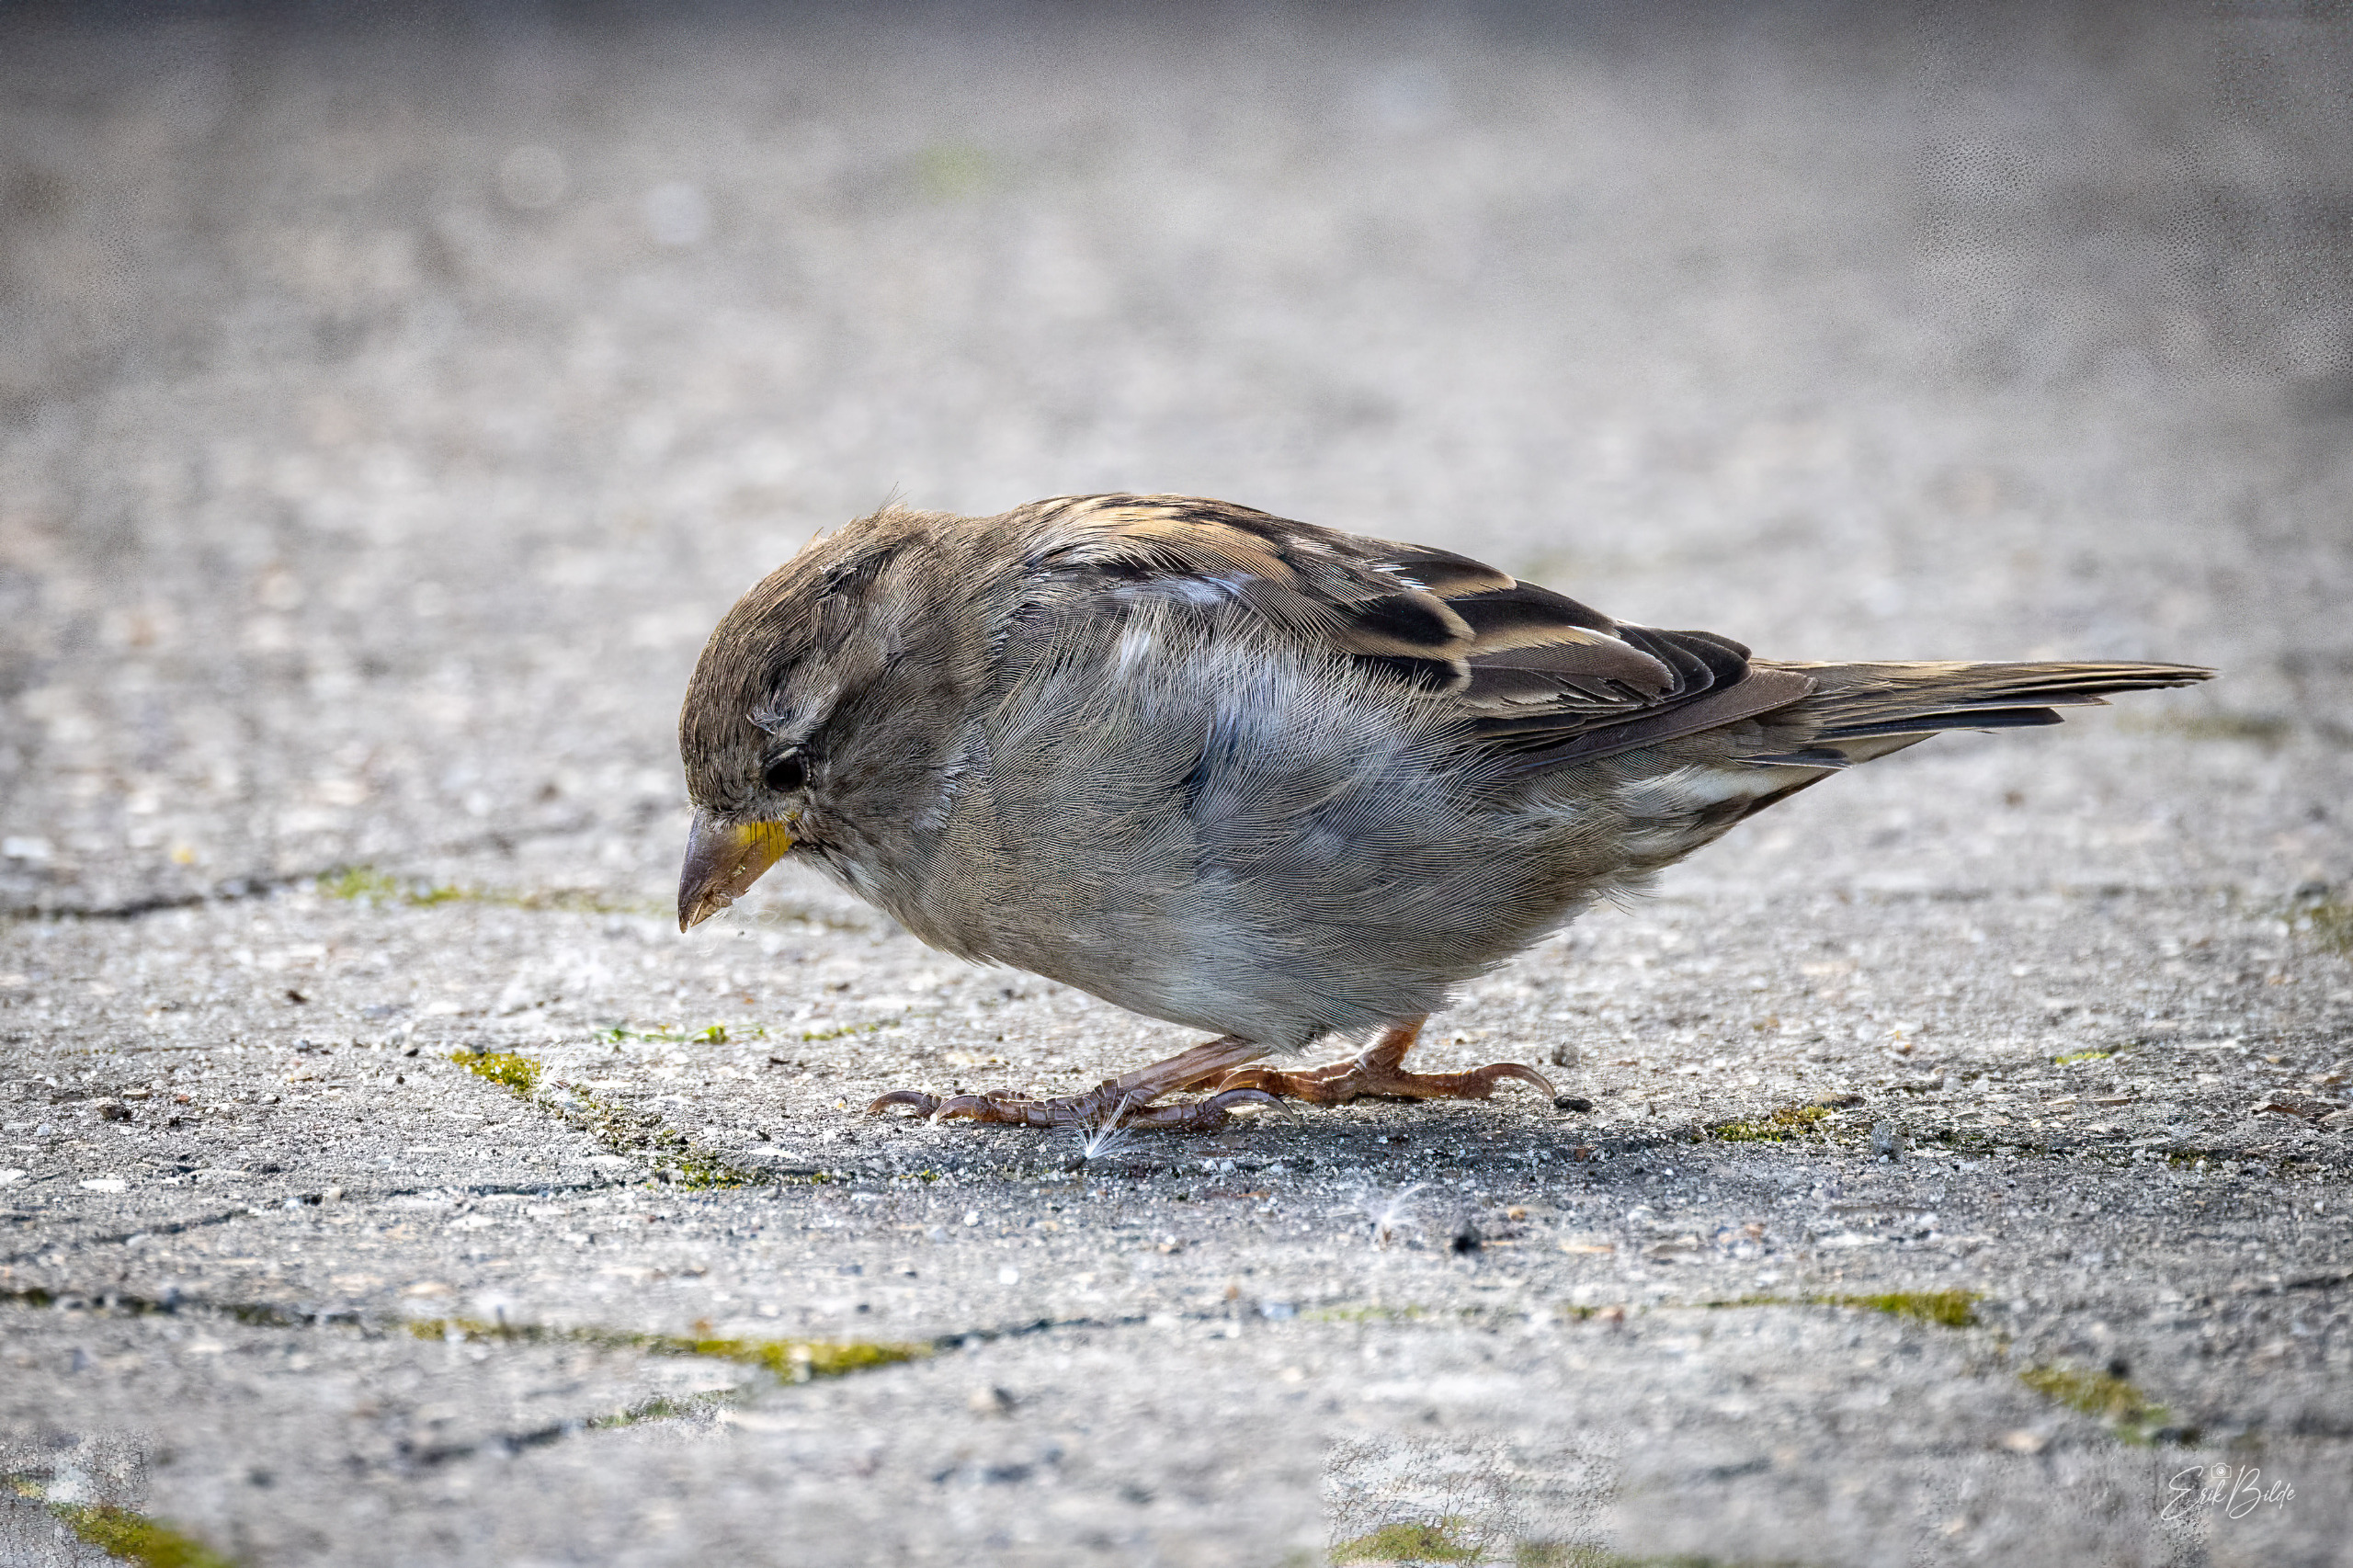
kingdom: Animalia
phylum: Chordata
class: Aves
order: Passeriformes
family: Passeridae
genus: Passer
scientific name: Passer domesticus
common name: Gråspurv
